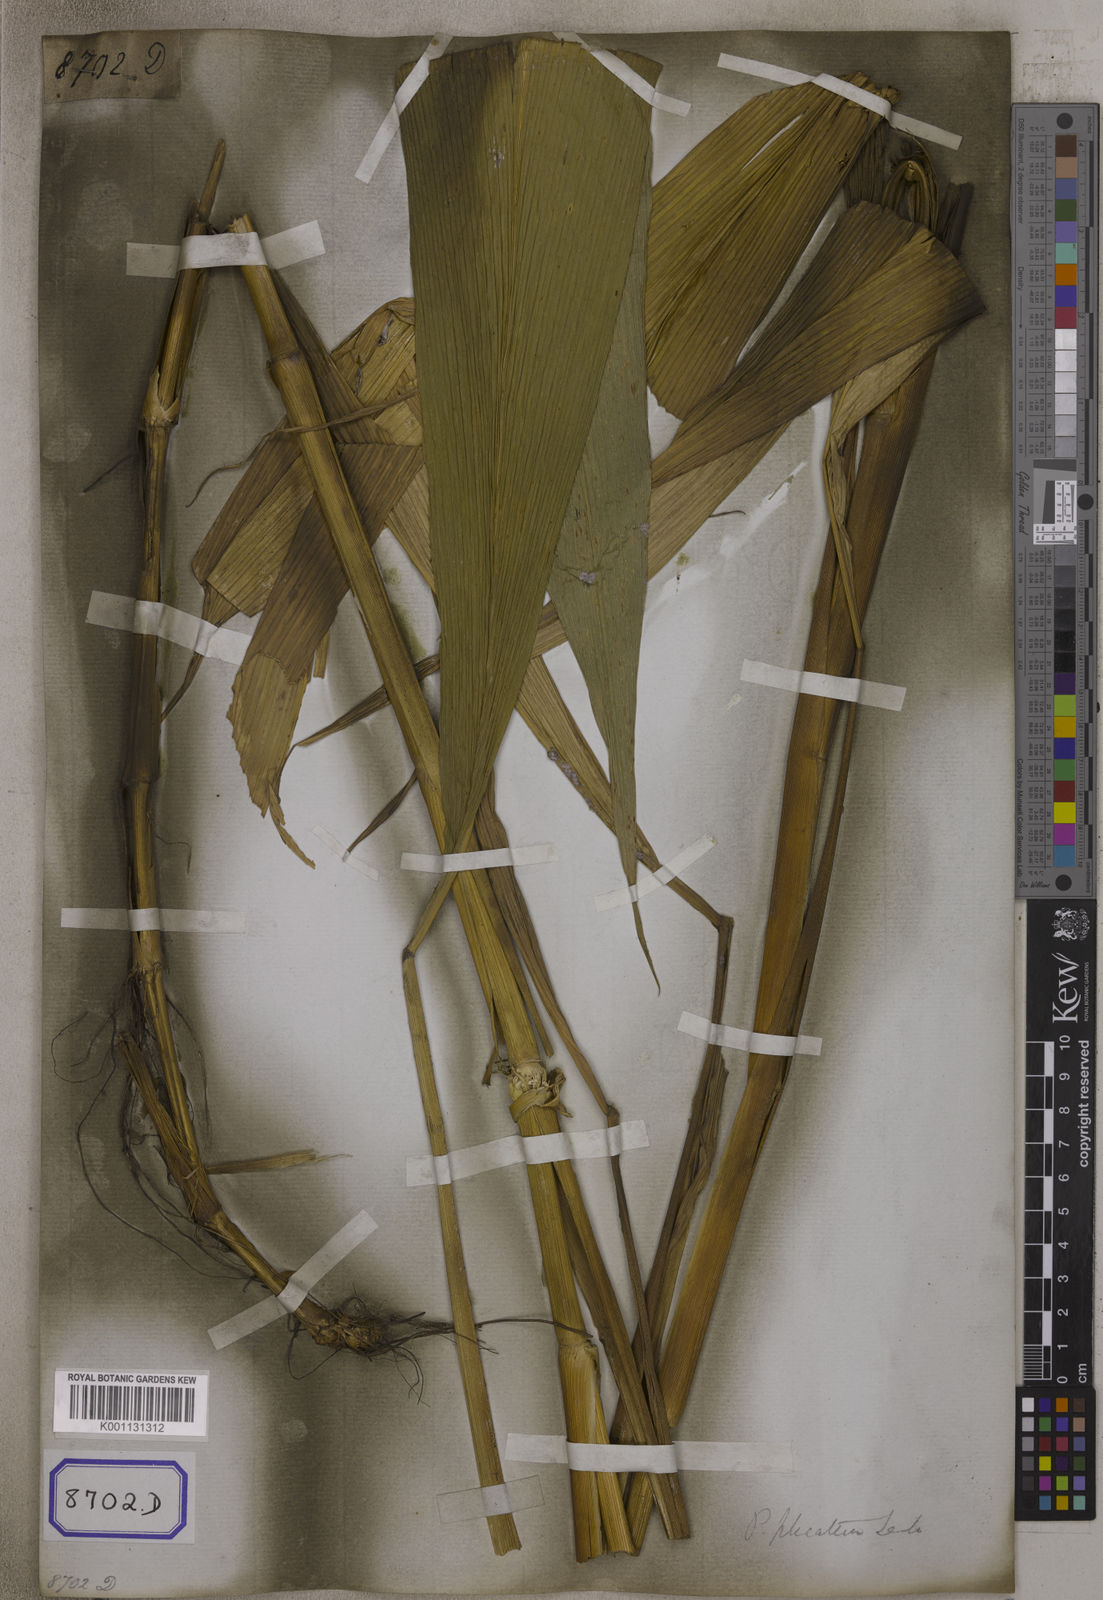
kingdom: Plantae
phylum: Tracheophyta
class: Liliopsida
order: Poales
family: Poaceae
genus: Setaria
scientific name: Setaria palmifolia
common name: Broadleaved bristlegrass
